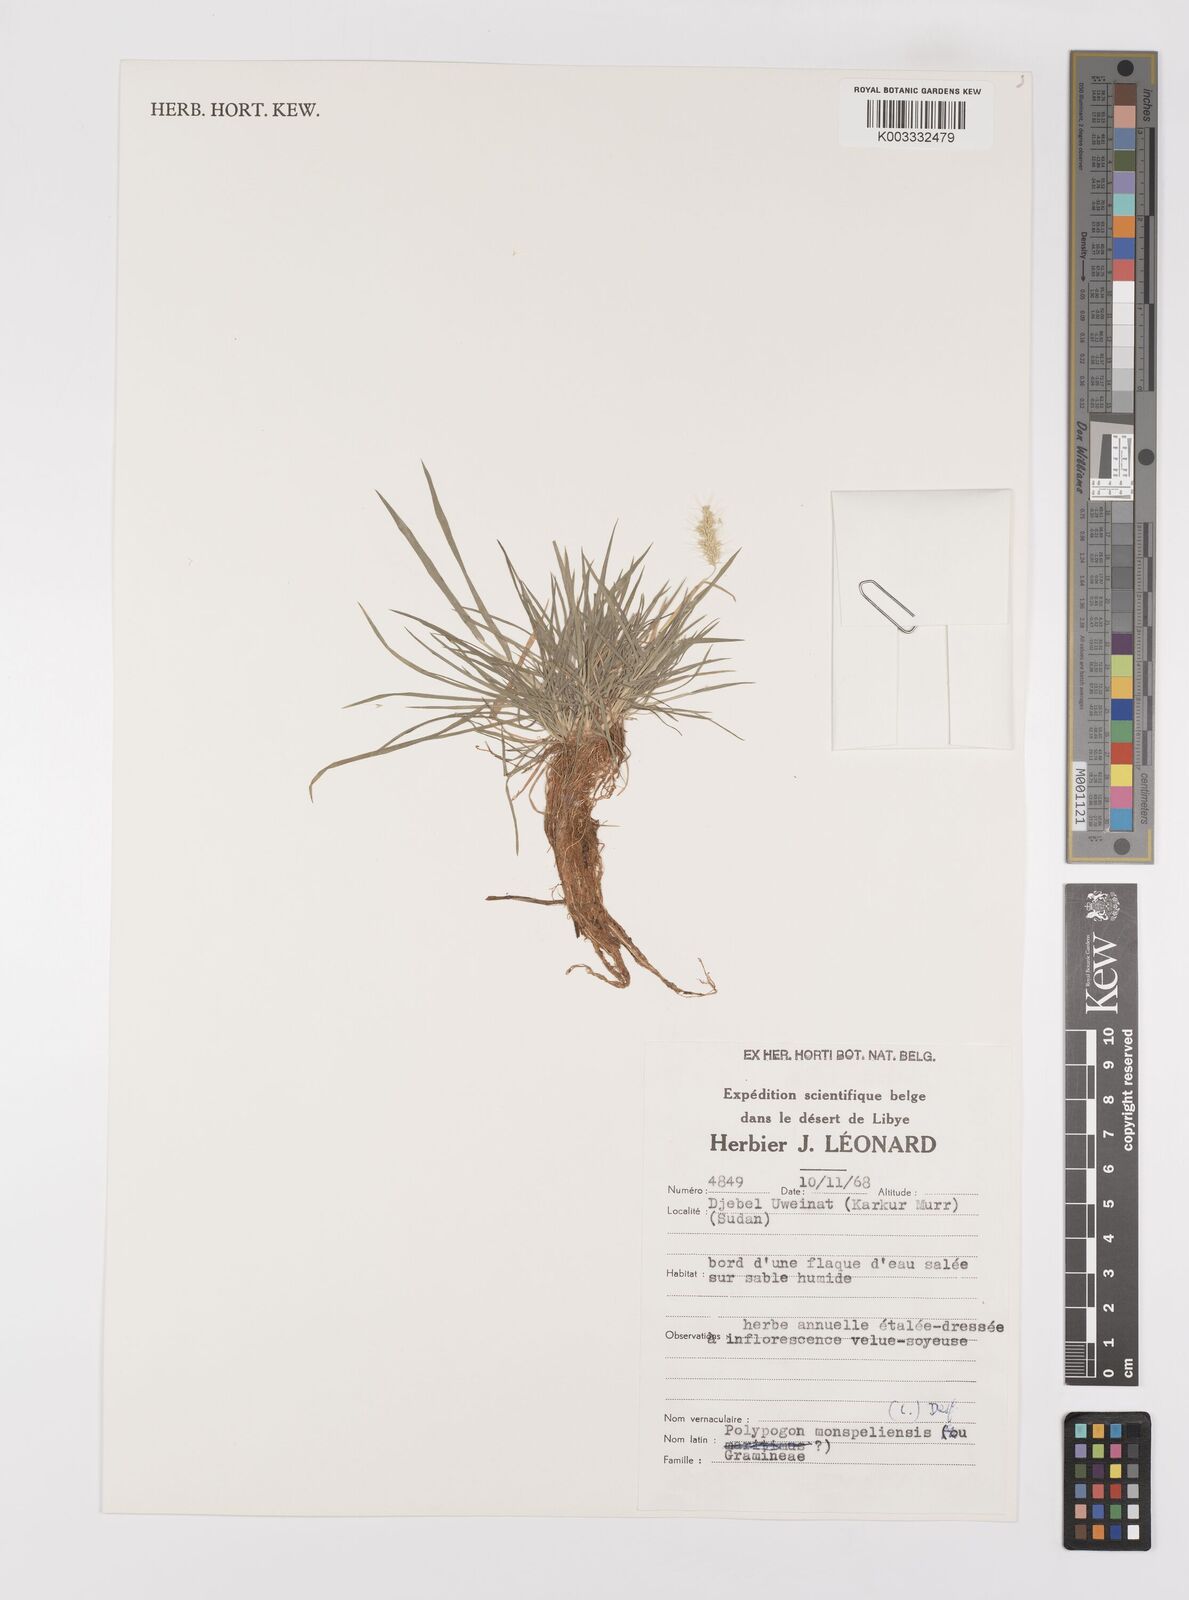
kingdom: Plantae
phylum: Tracheophyta
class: Liliopsida
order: Poales
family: Poaceae
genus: Polypogon
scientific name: Polypogon monspeliensis
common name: Annual rabbitsfoot grass
